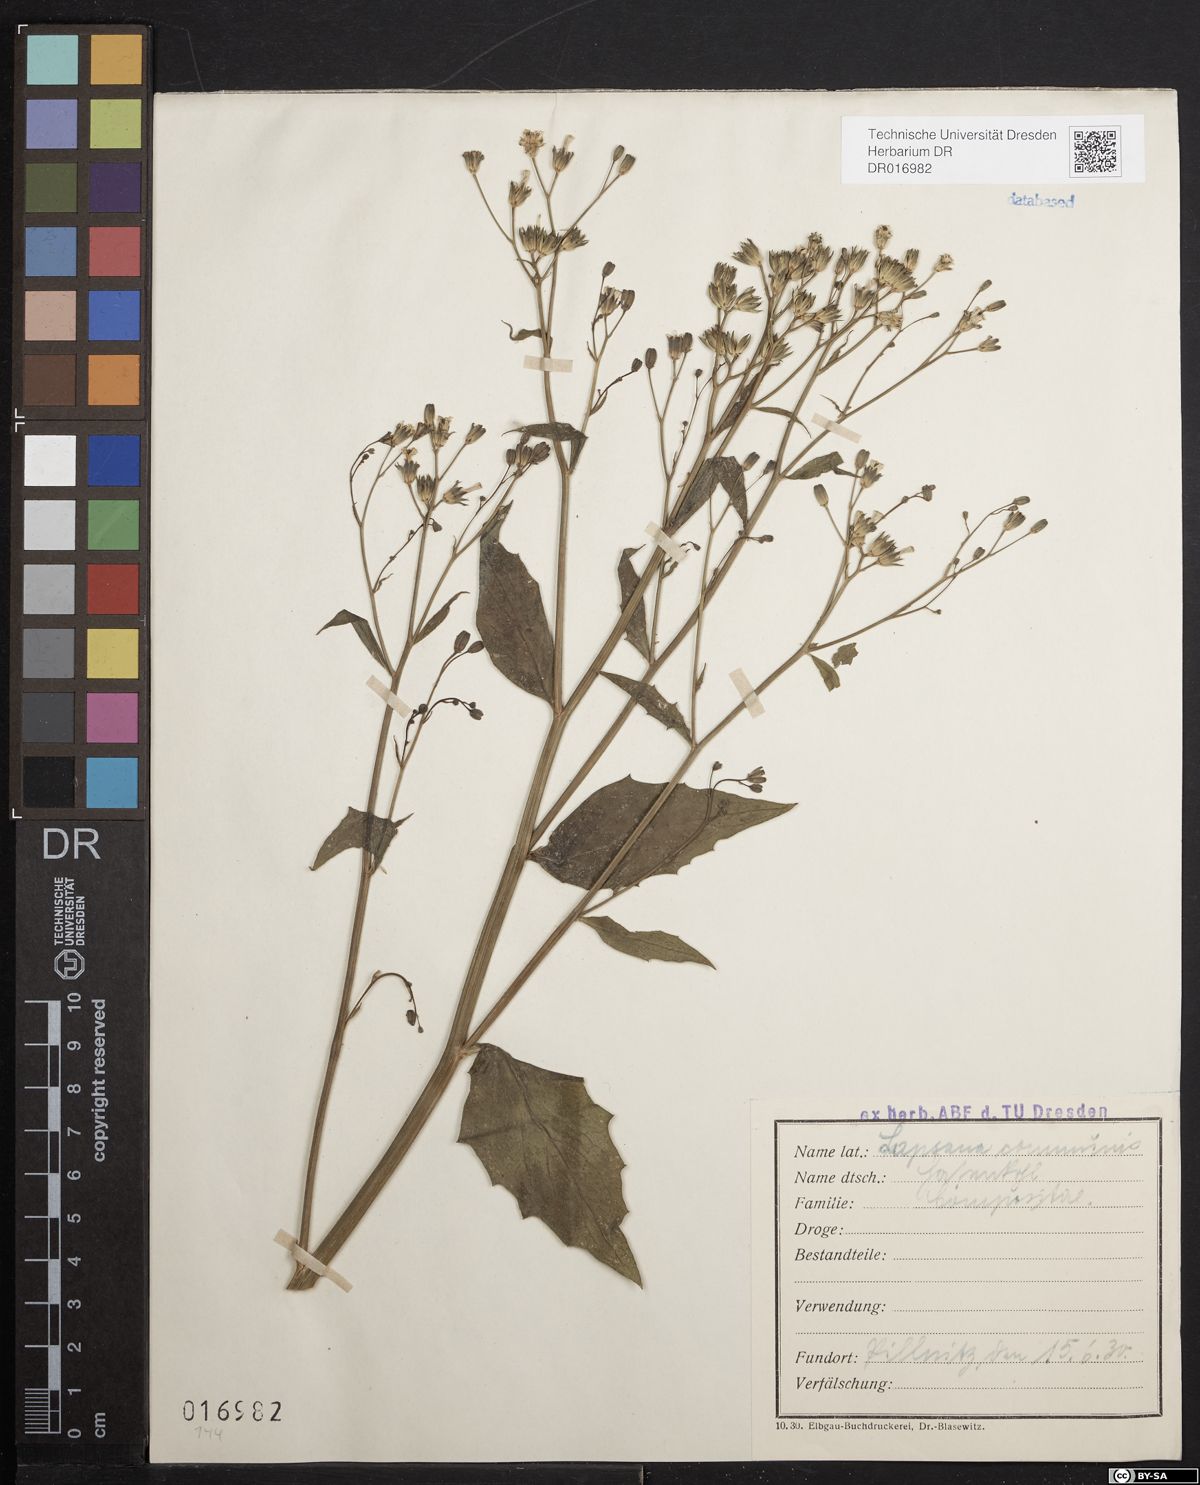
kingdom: Plantae
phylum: Tracheophyta
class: Magnoliopsida
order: Asterales
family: Asteraceae
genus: Lapsana
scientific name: Lapsana communis
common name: Nipplewort
